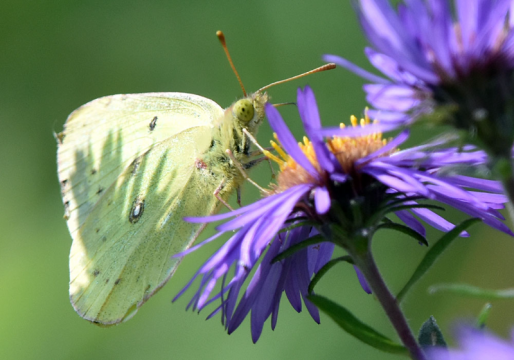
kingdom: Animalia
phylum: Arthropoda
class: Insecta
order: Lepidoptera
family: Pieridae
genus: Colias
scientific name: Colias philodice
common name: Clouded Sulphur
